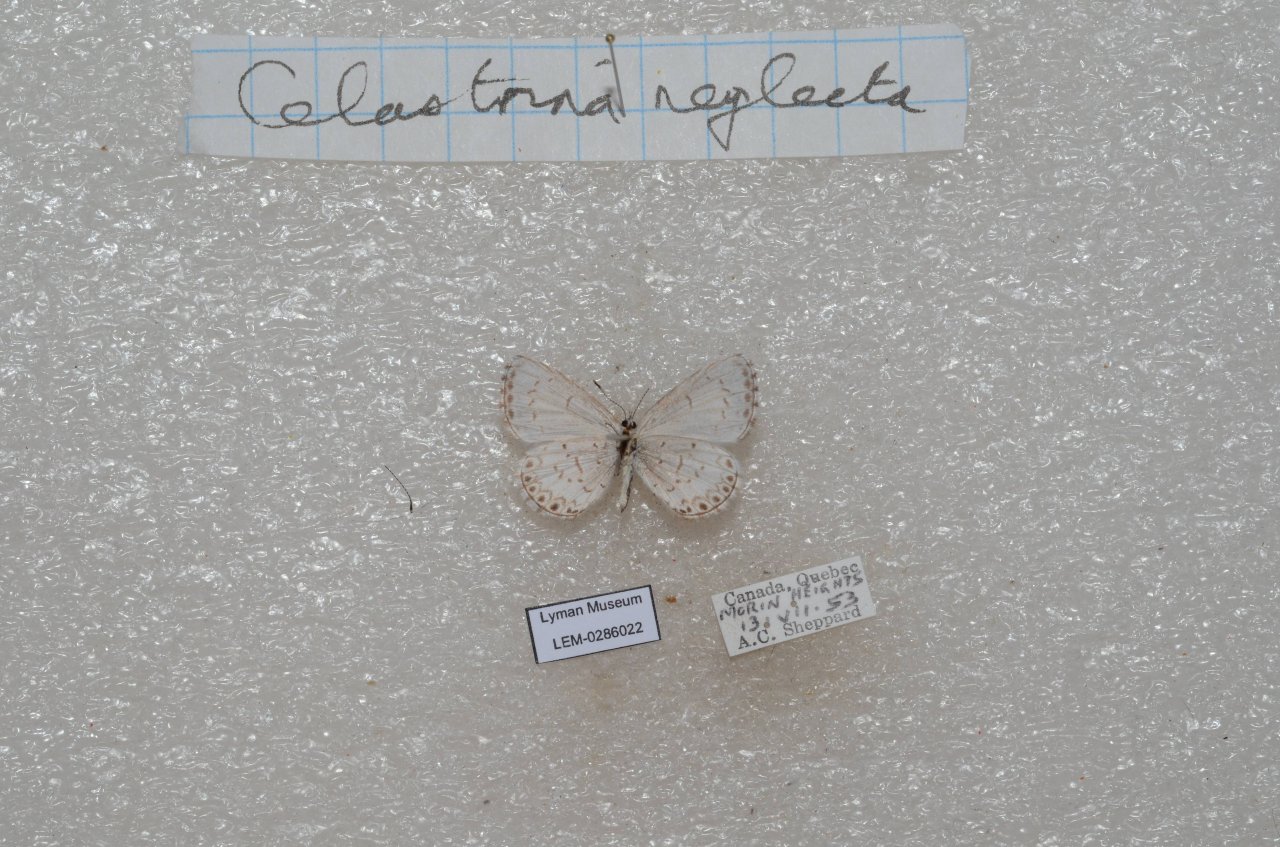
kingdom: Animalia
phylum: Arthropoda
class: Insecta
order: Lepidoptera
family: Lycaenidae
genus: Celastrina
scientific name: Celastrina lucia
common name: Northern Spring Azure
